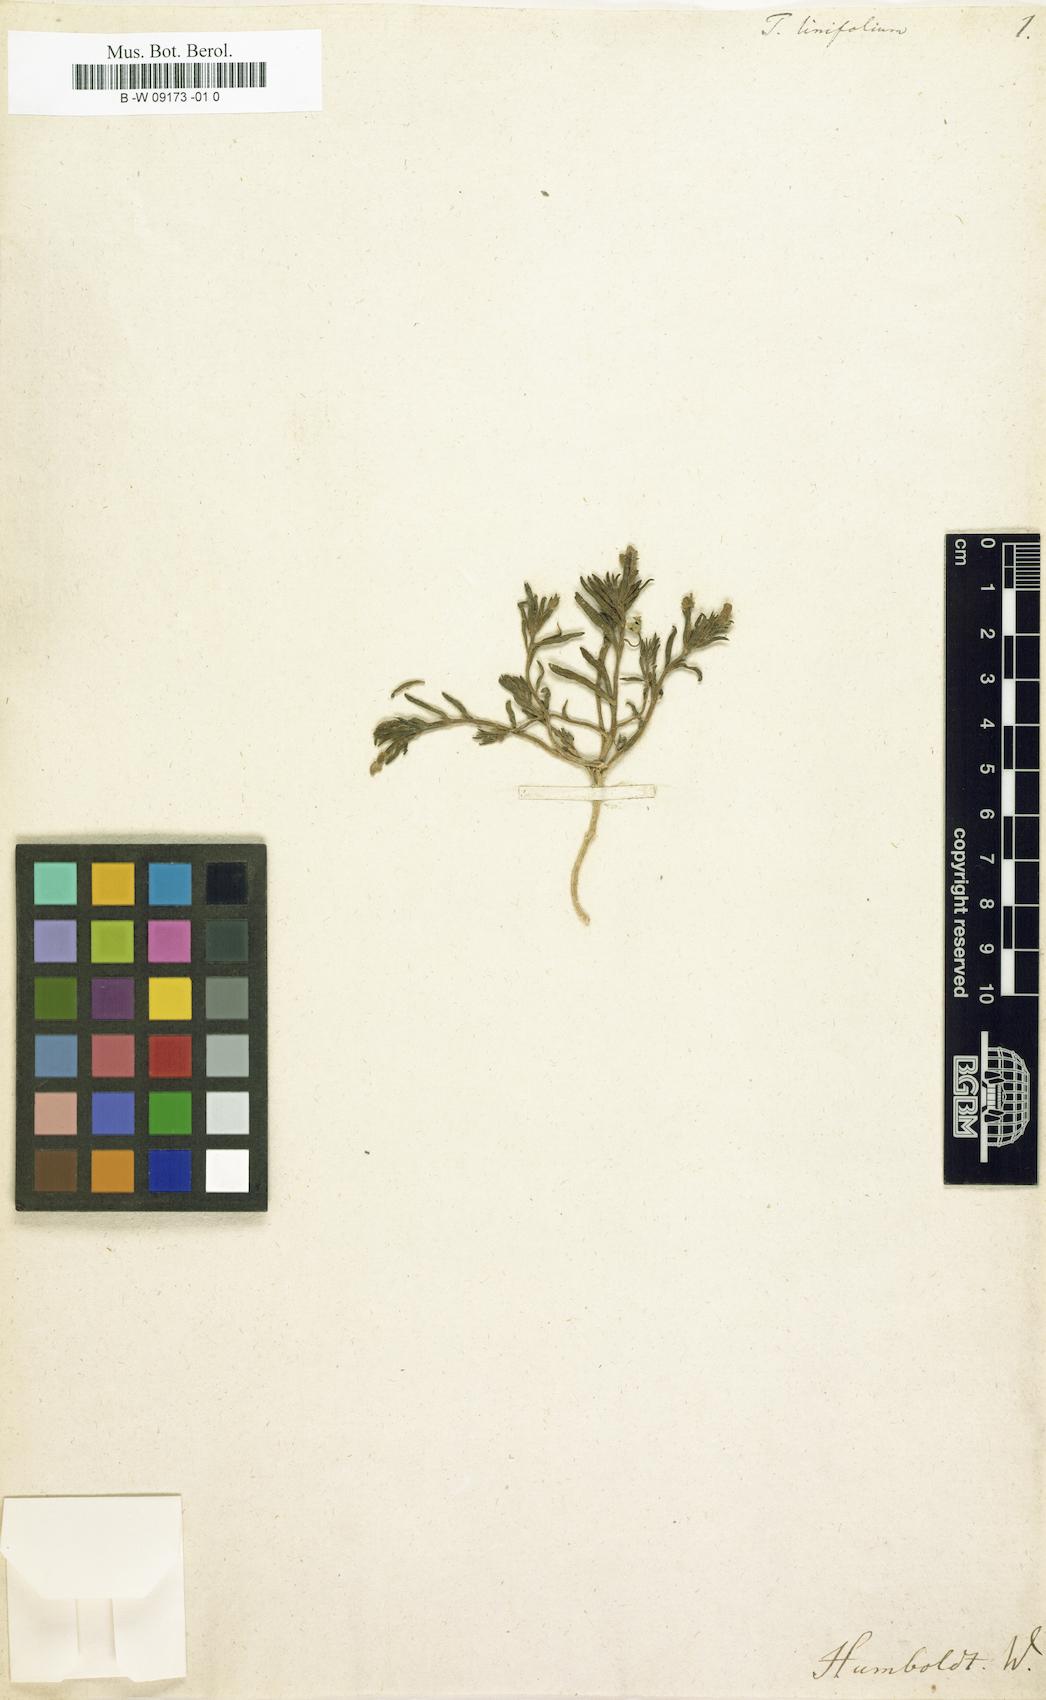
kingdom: Plantae
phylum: Tracheophyta
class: Magnoliopsida
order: Caryophyllales
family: Talinaceae
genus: Talinum
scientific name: Talinum
